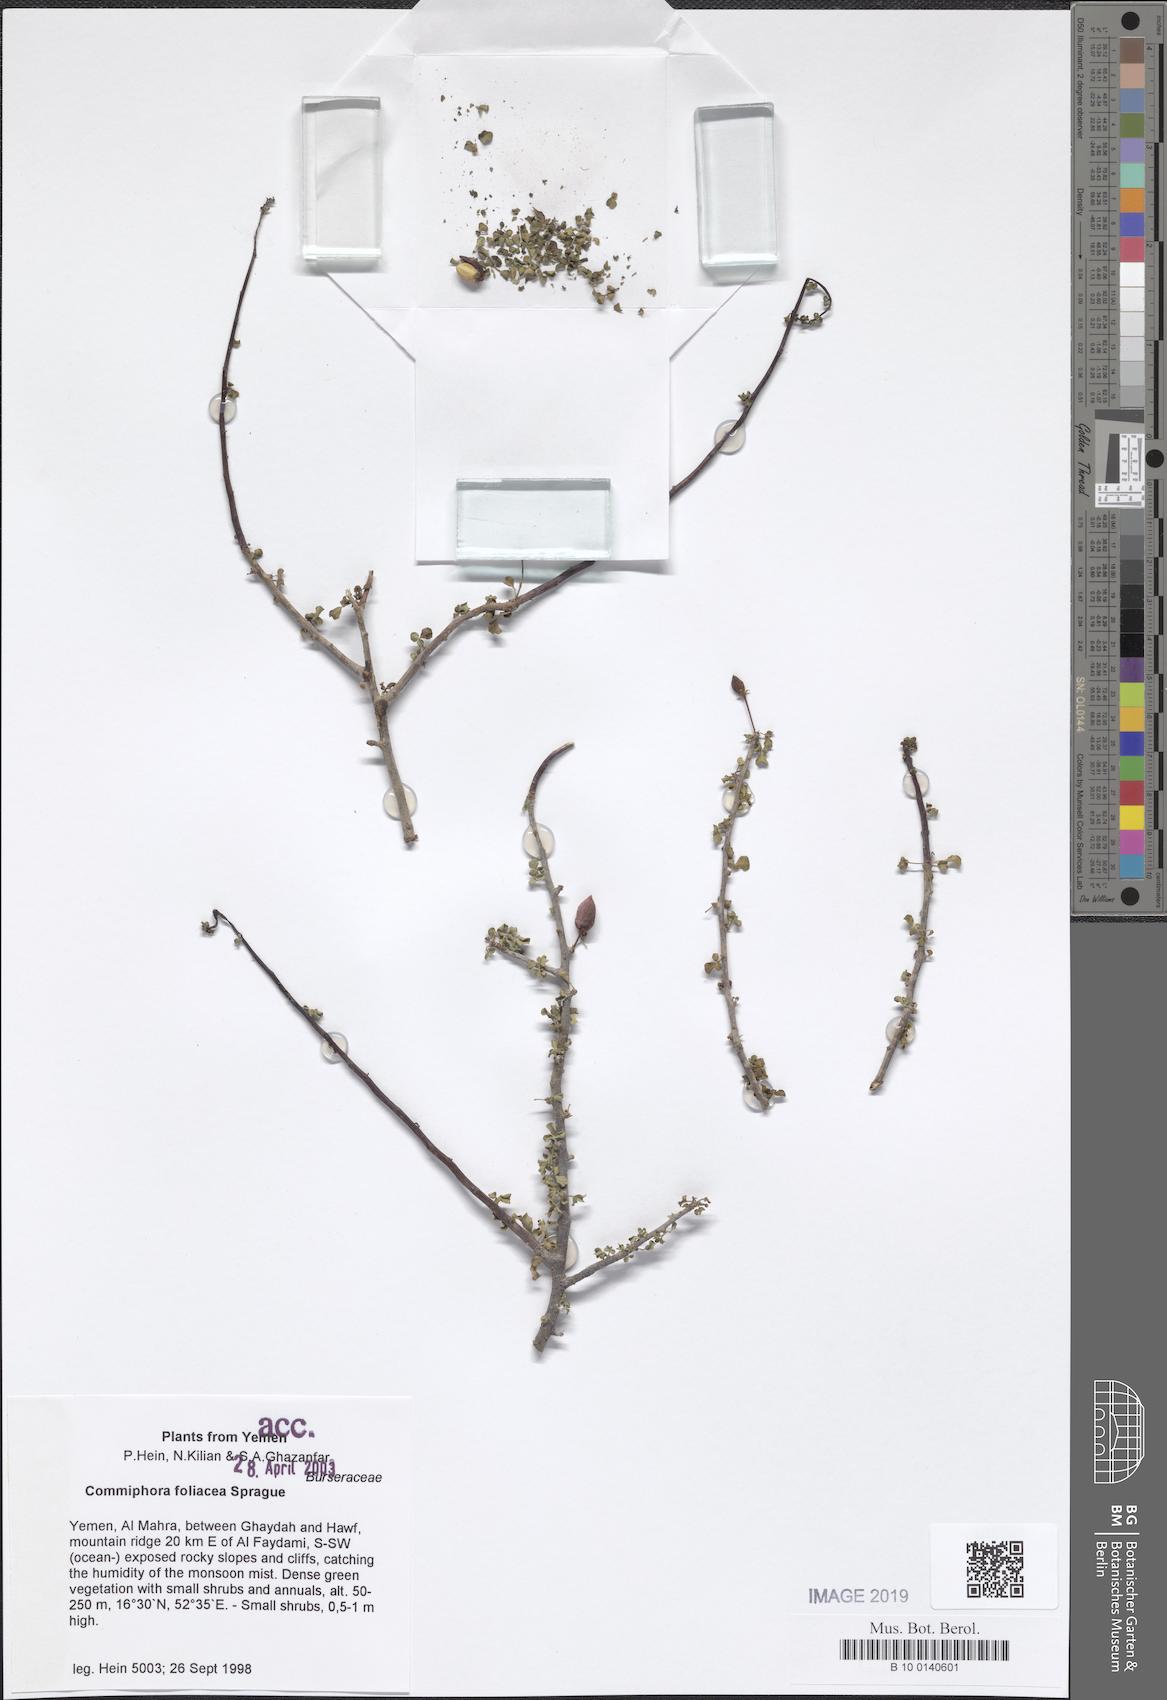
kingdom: Plantae
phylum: Tracheophyta
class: Magnoliopsida
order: Sapindales
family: Burseraceae
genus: Commiphora
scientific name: Commiphora foliacea
